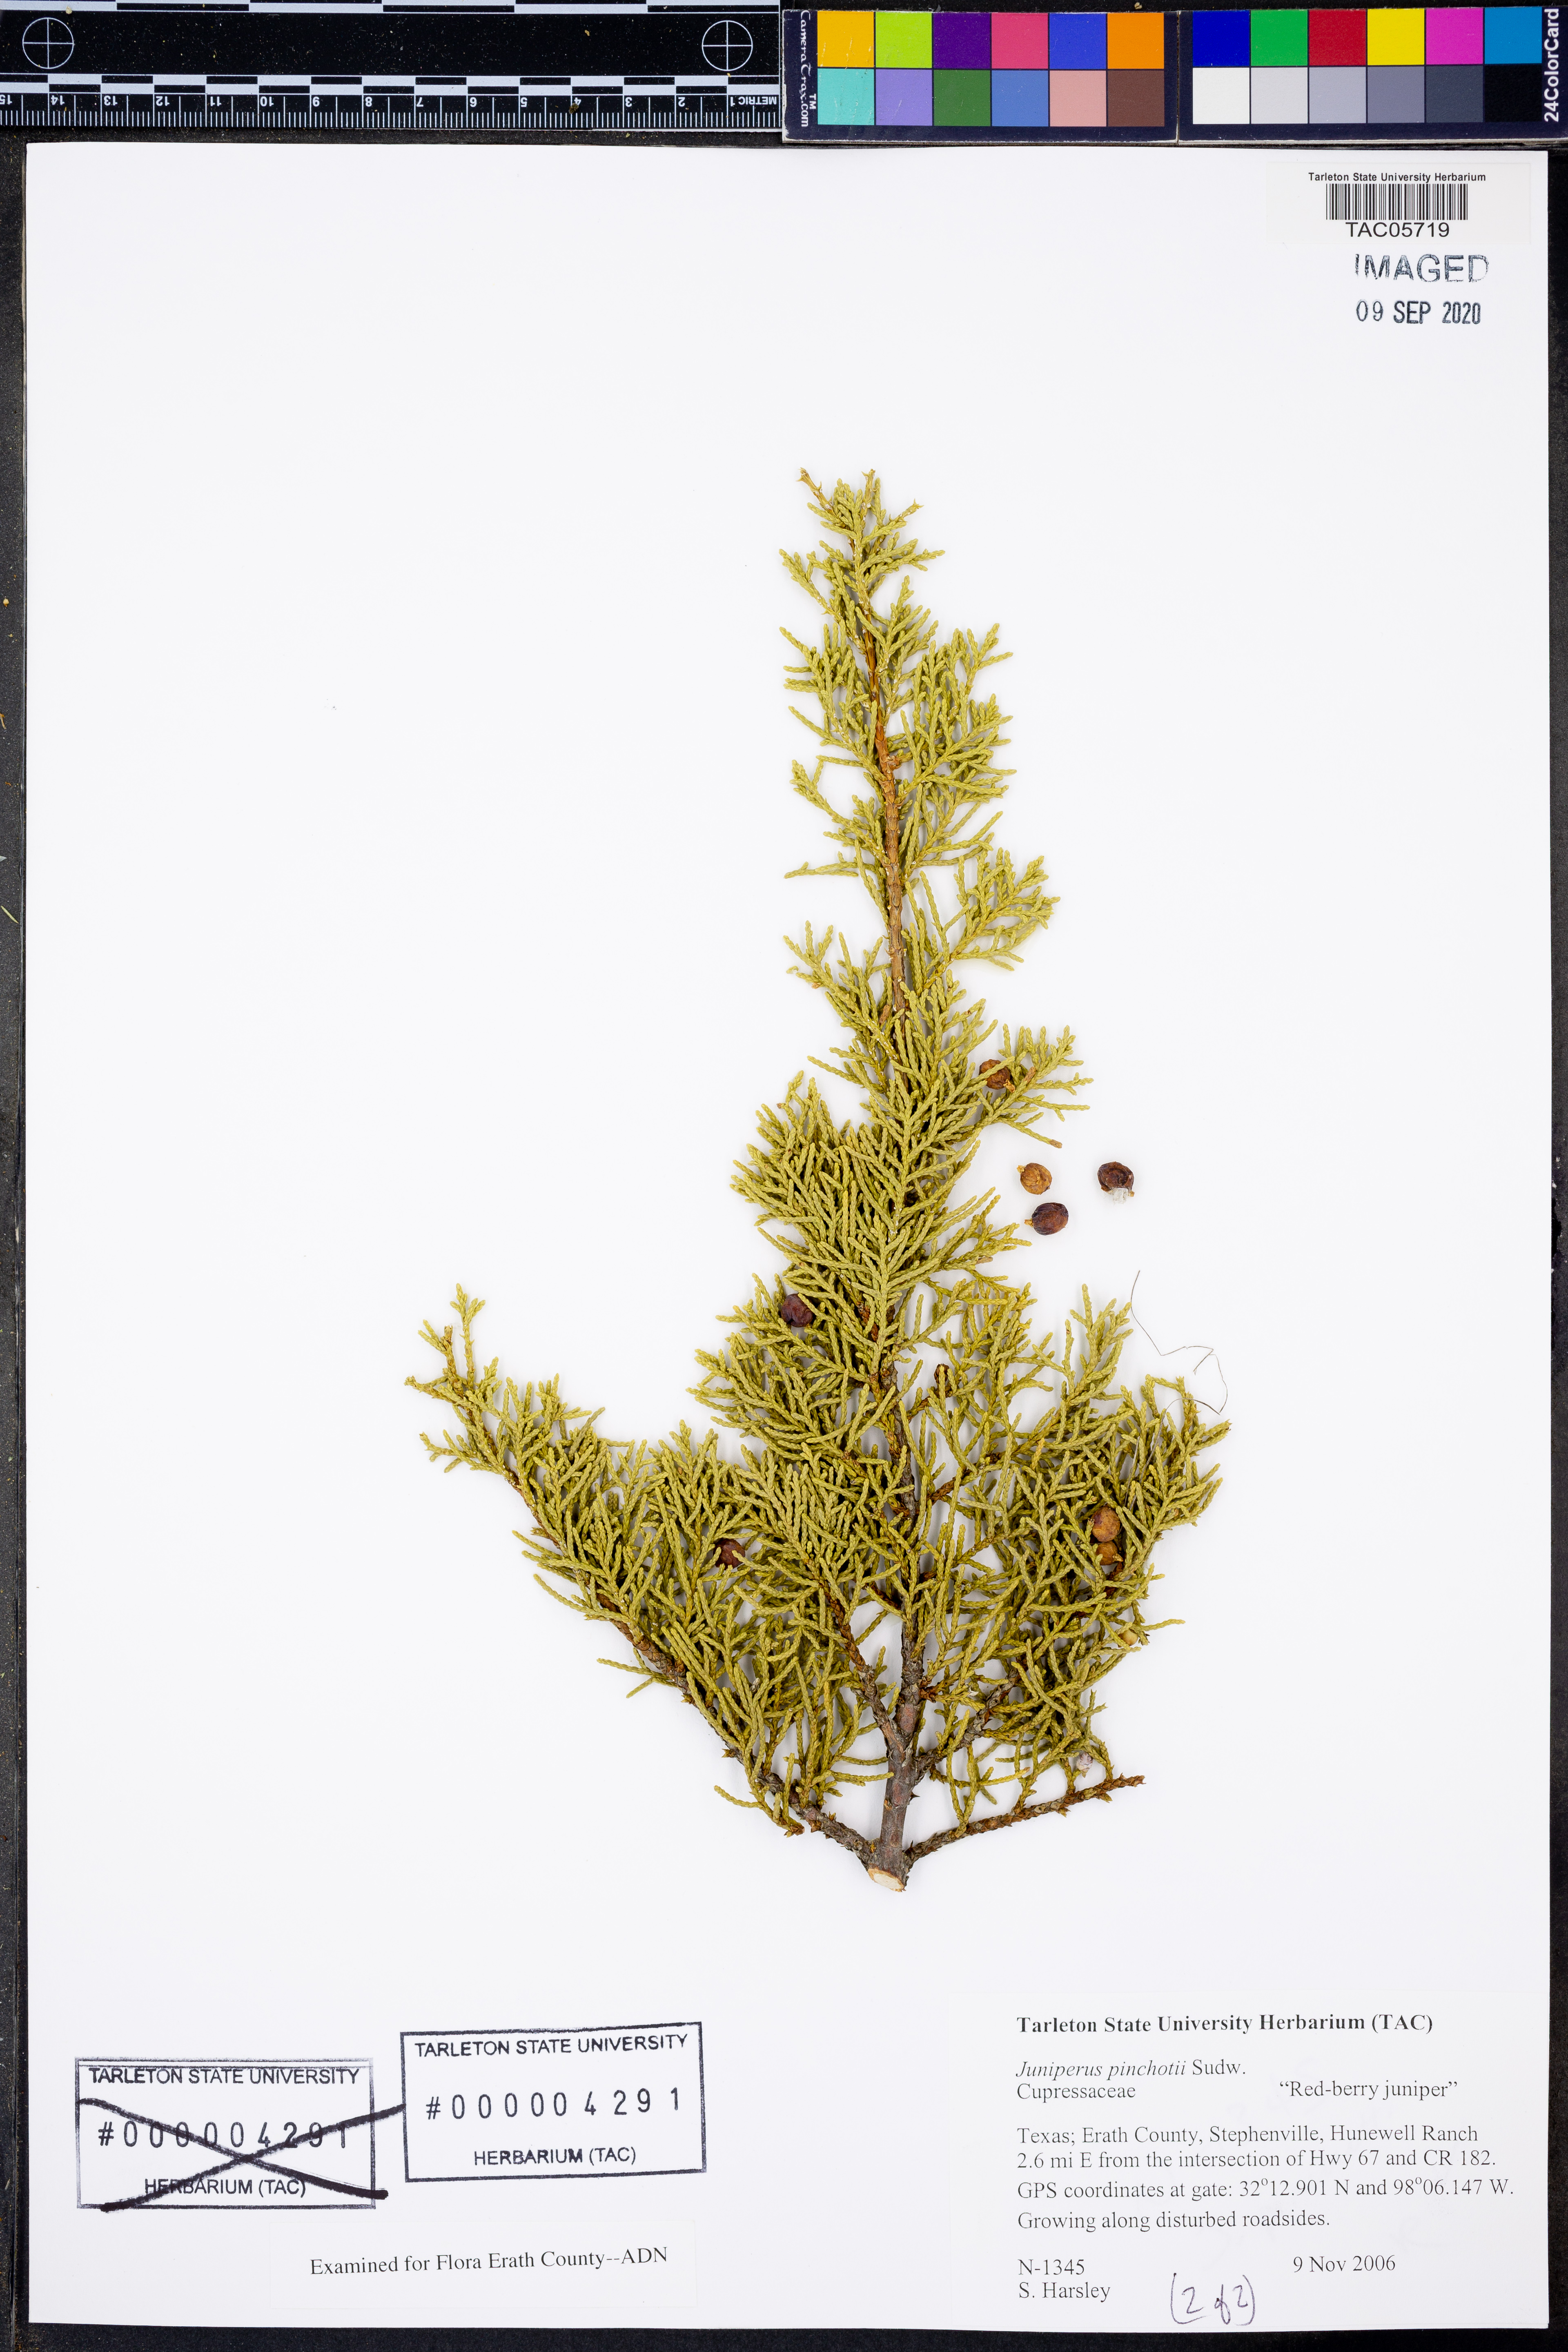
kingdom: Plantae
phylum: Tracheophyta
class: Pinopsida
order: Pinales
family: Cupressaceae
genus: Juniperus
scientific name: Juniperus pinchotii
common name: Pinchot juniper
